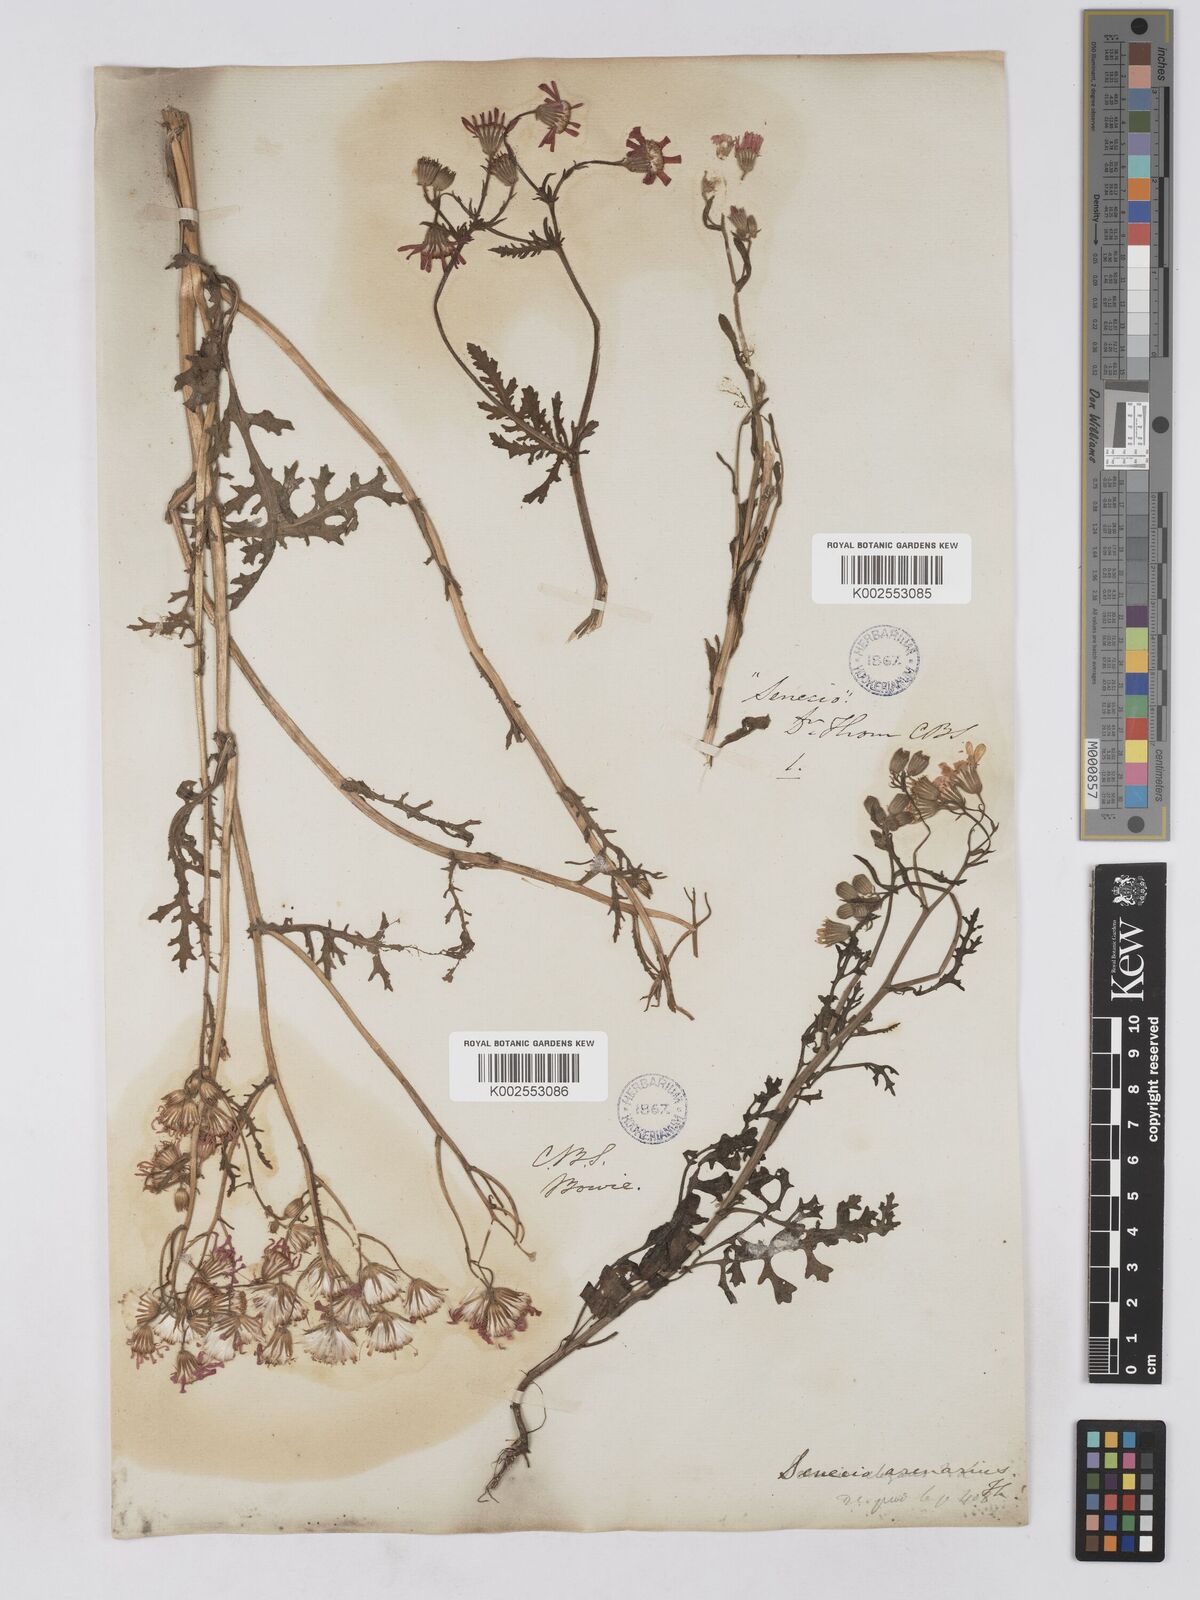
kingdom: Plantae
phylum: Tracheophyta
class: Magnoliopsida
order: Asterales
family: Asteraceae
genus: Senecio
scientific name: Senecio arenarius
